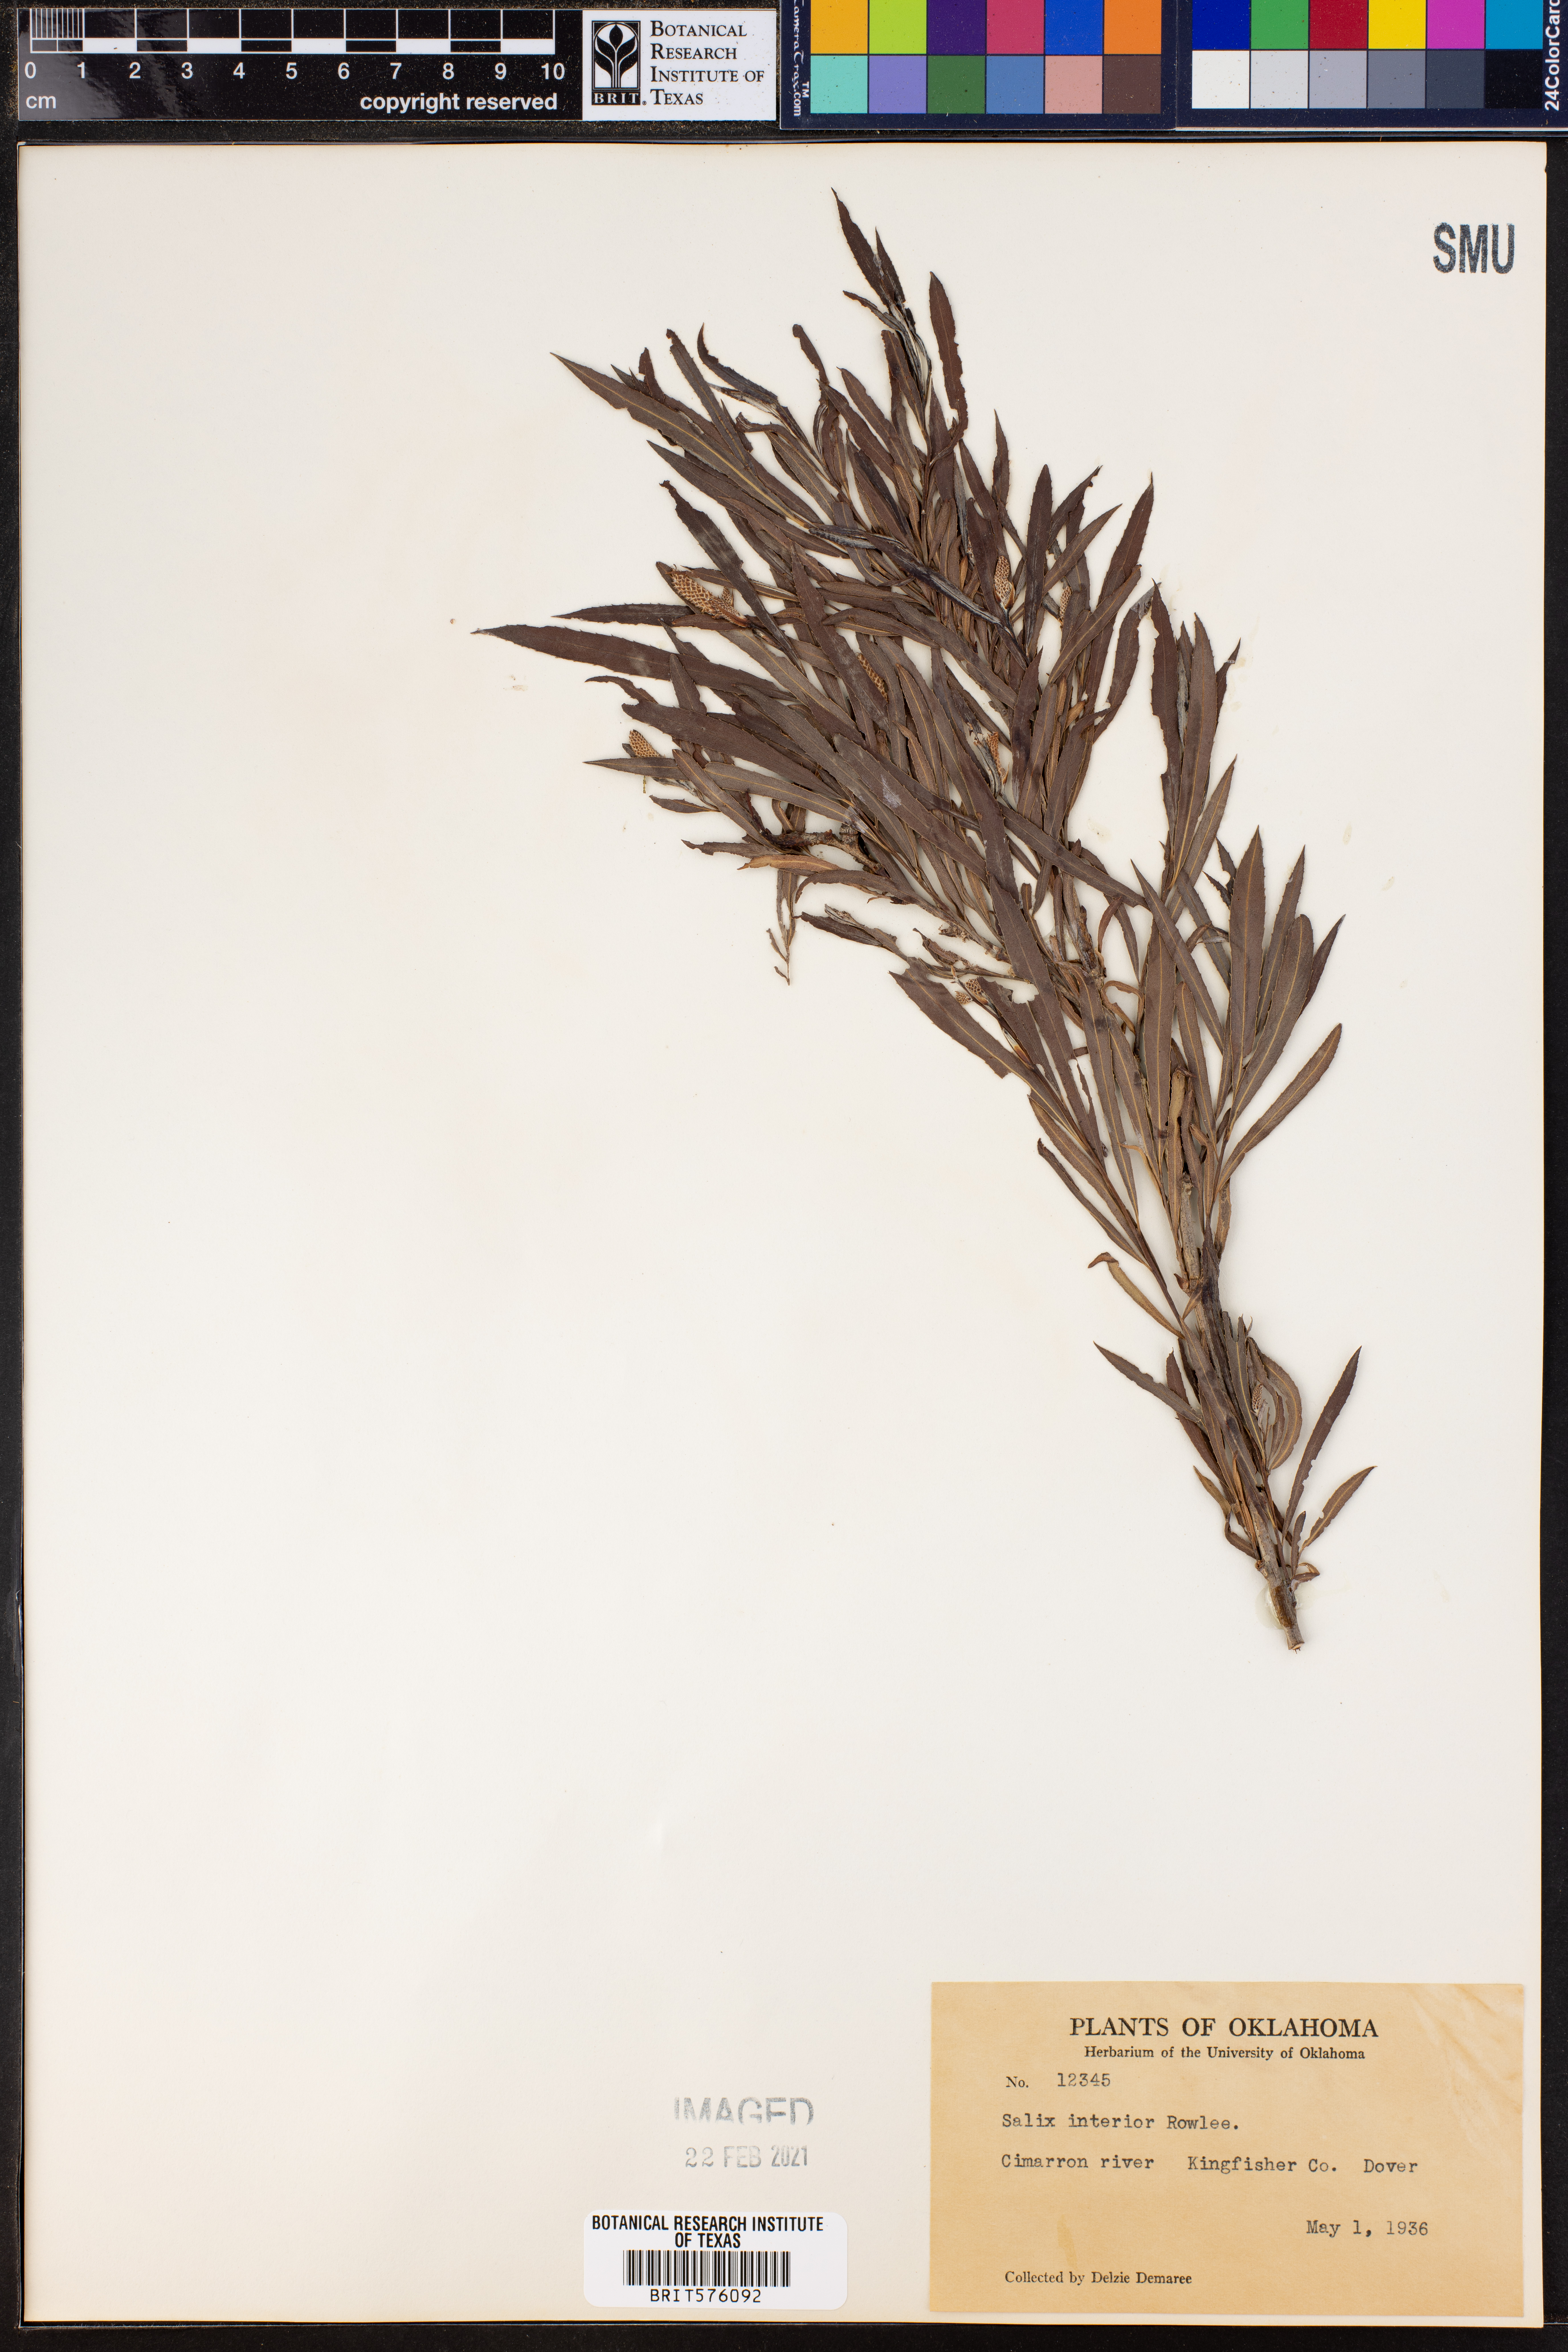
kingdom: Plantae
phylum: Tracheophyta
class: Magnoliopsida
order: Malpighiales
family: Salicaceae
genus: Salix
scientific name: Salix interior
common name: Sandbar willow
